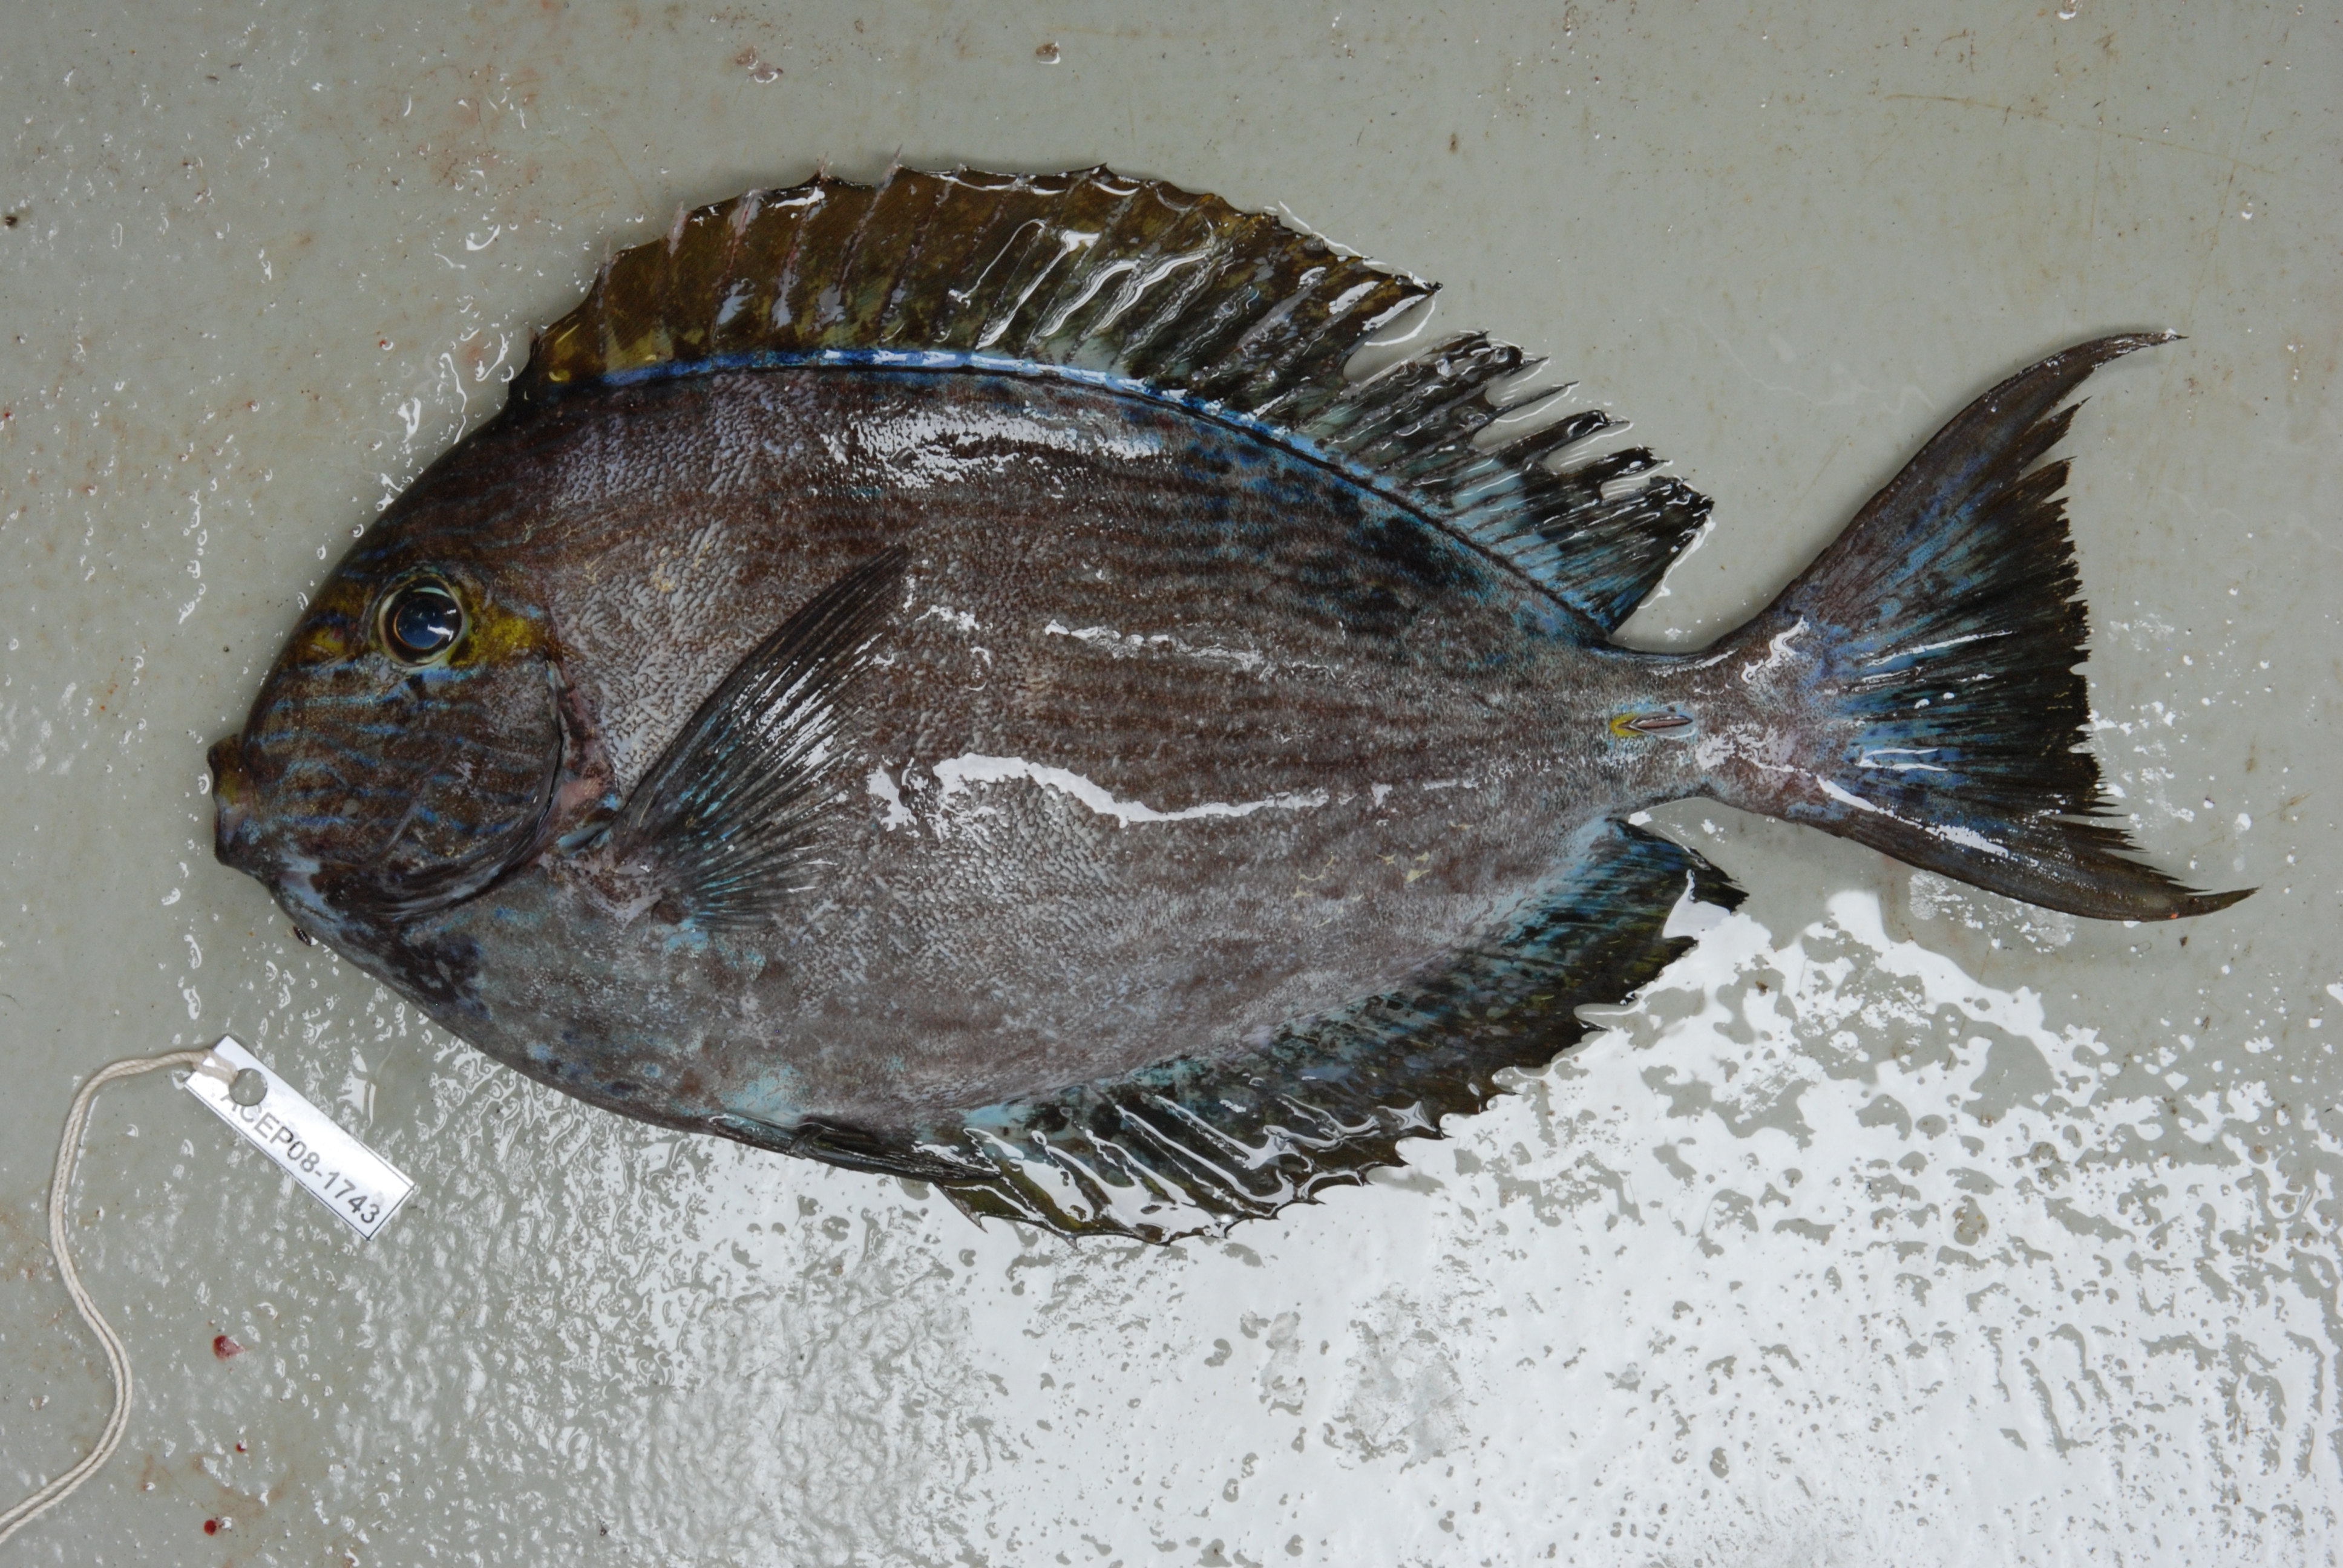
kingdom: Animalia
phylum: Chordata
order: Perciformes
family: Acanthuridae
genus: Acanthurus
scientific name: Acanthurus xanthopterus
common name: Cuvier's surgeonfish
